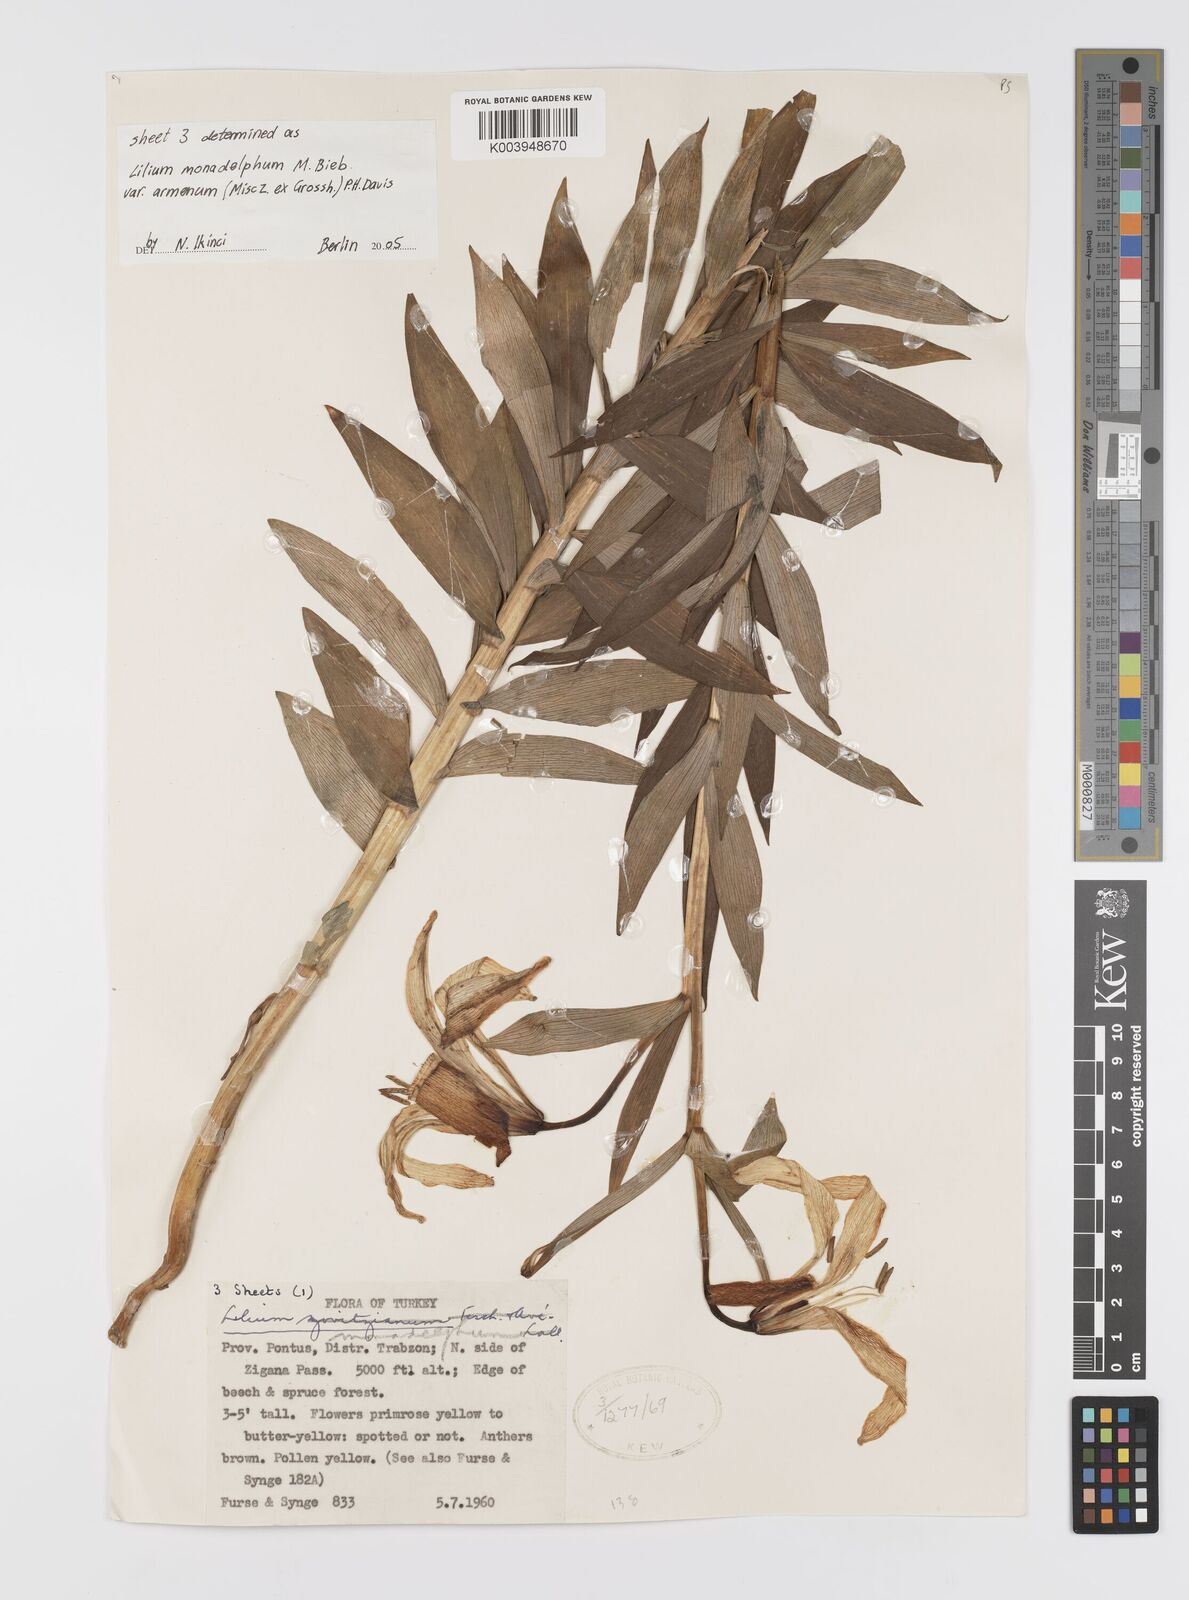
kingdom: Plantae
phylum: Tracheophyta
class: Liliopsida
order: Liliales
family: Liliaceae
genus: Lilium
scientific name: Lilium armenum
